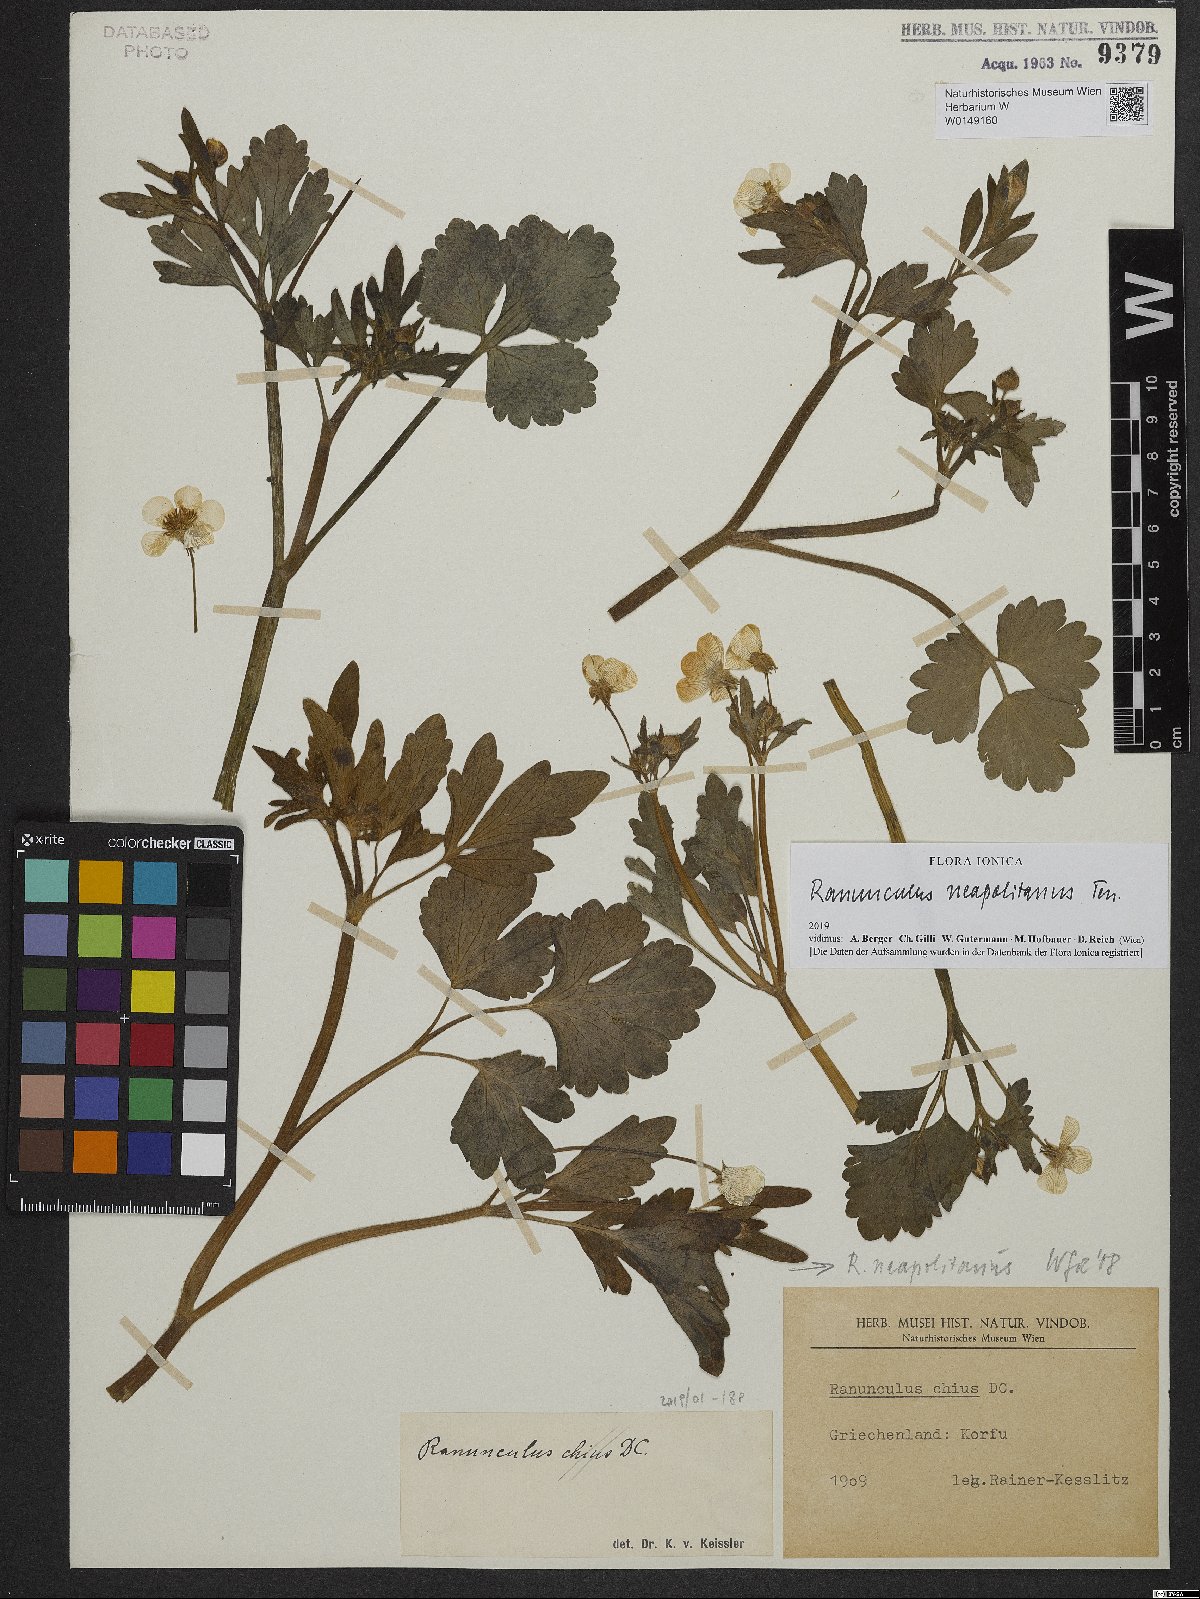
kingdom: Plantae
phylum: Tracheophyta
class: Magnoliopsida
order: Ranunculales
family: Ranunculaceae
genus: Ranunculus
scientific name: Ranunculus neapolitanus
